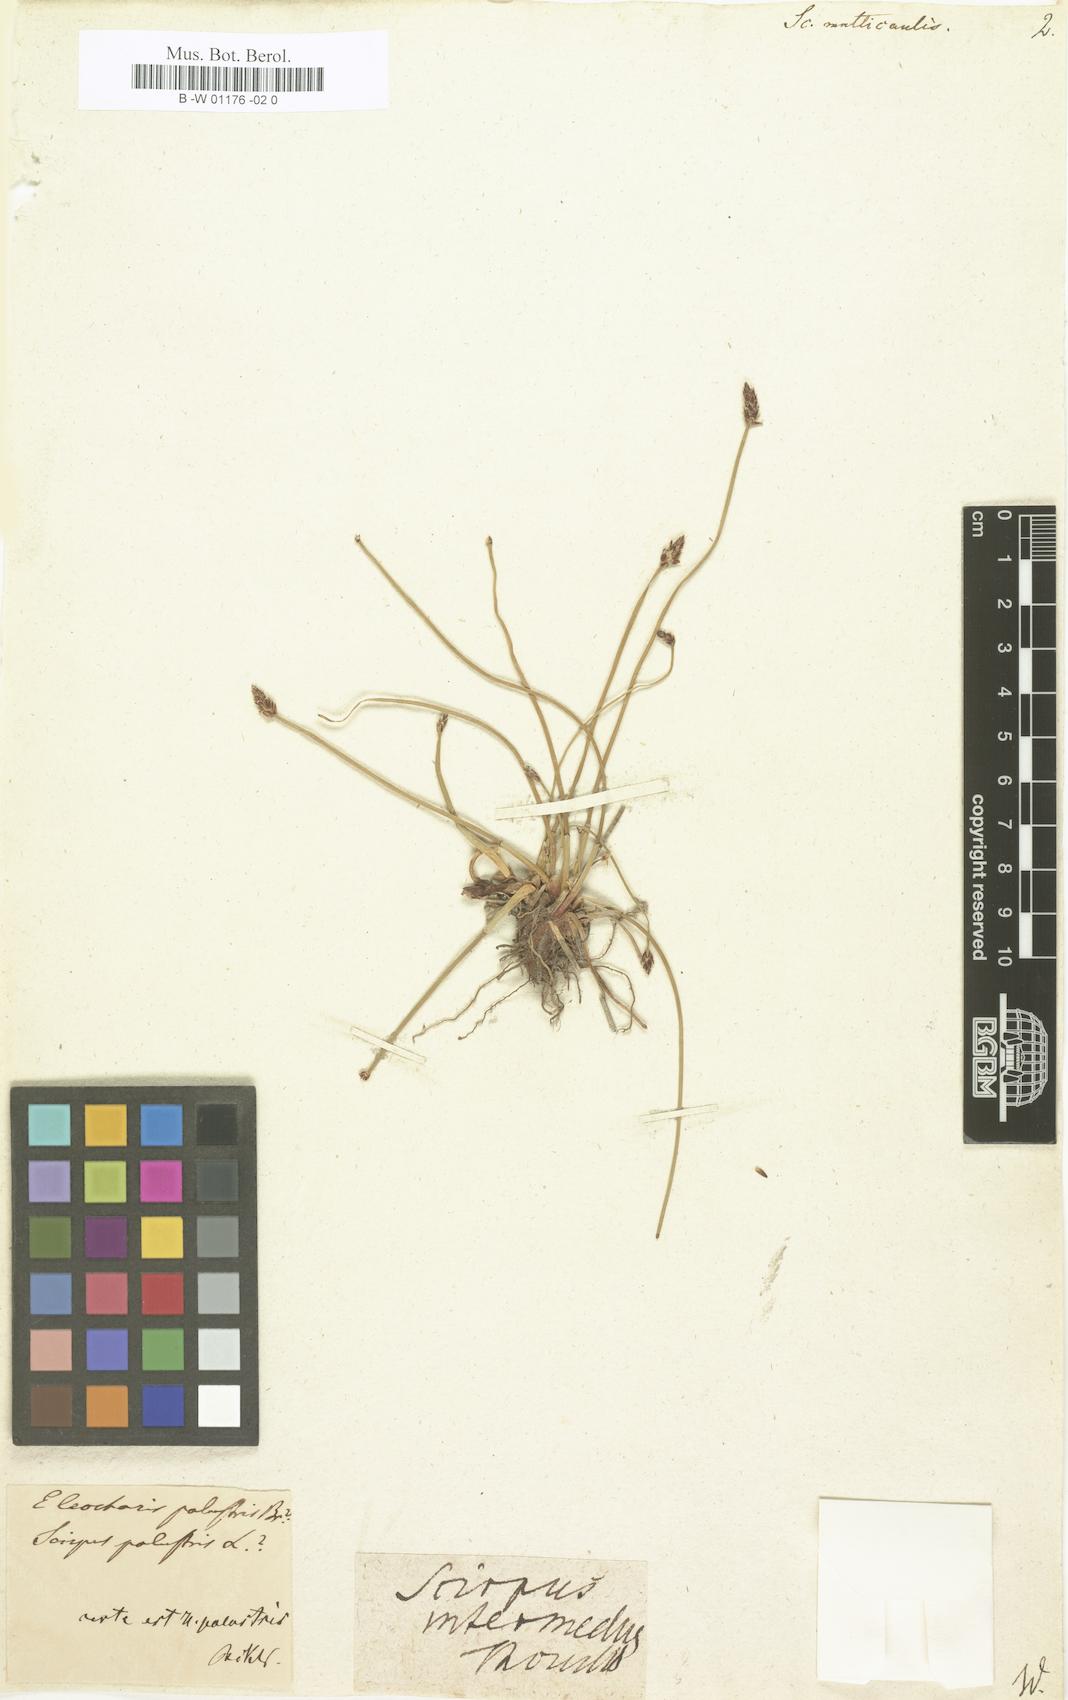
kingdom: Plantae
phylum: Tracheophyta
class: Liliopsida
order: Poales
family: Cyperaceae
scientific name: Cyperaceae
